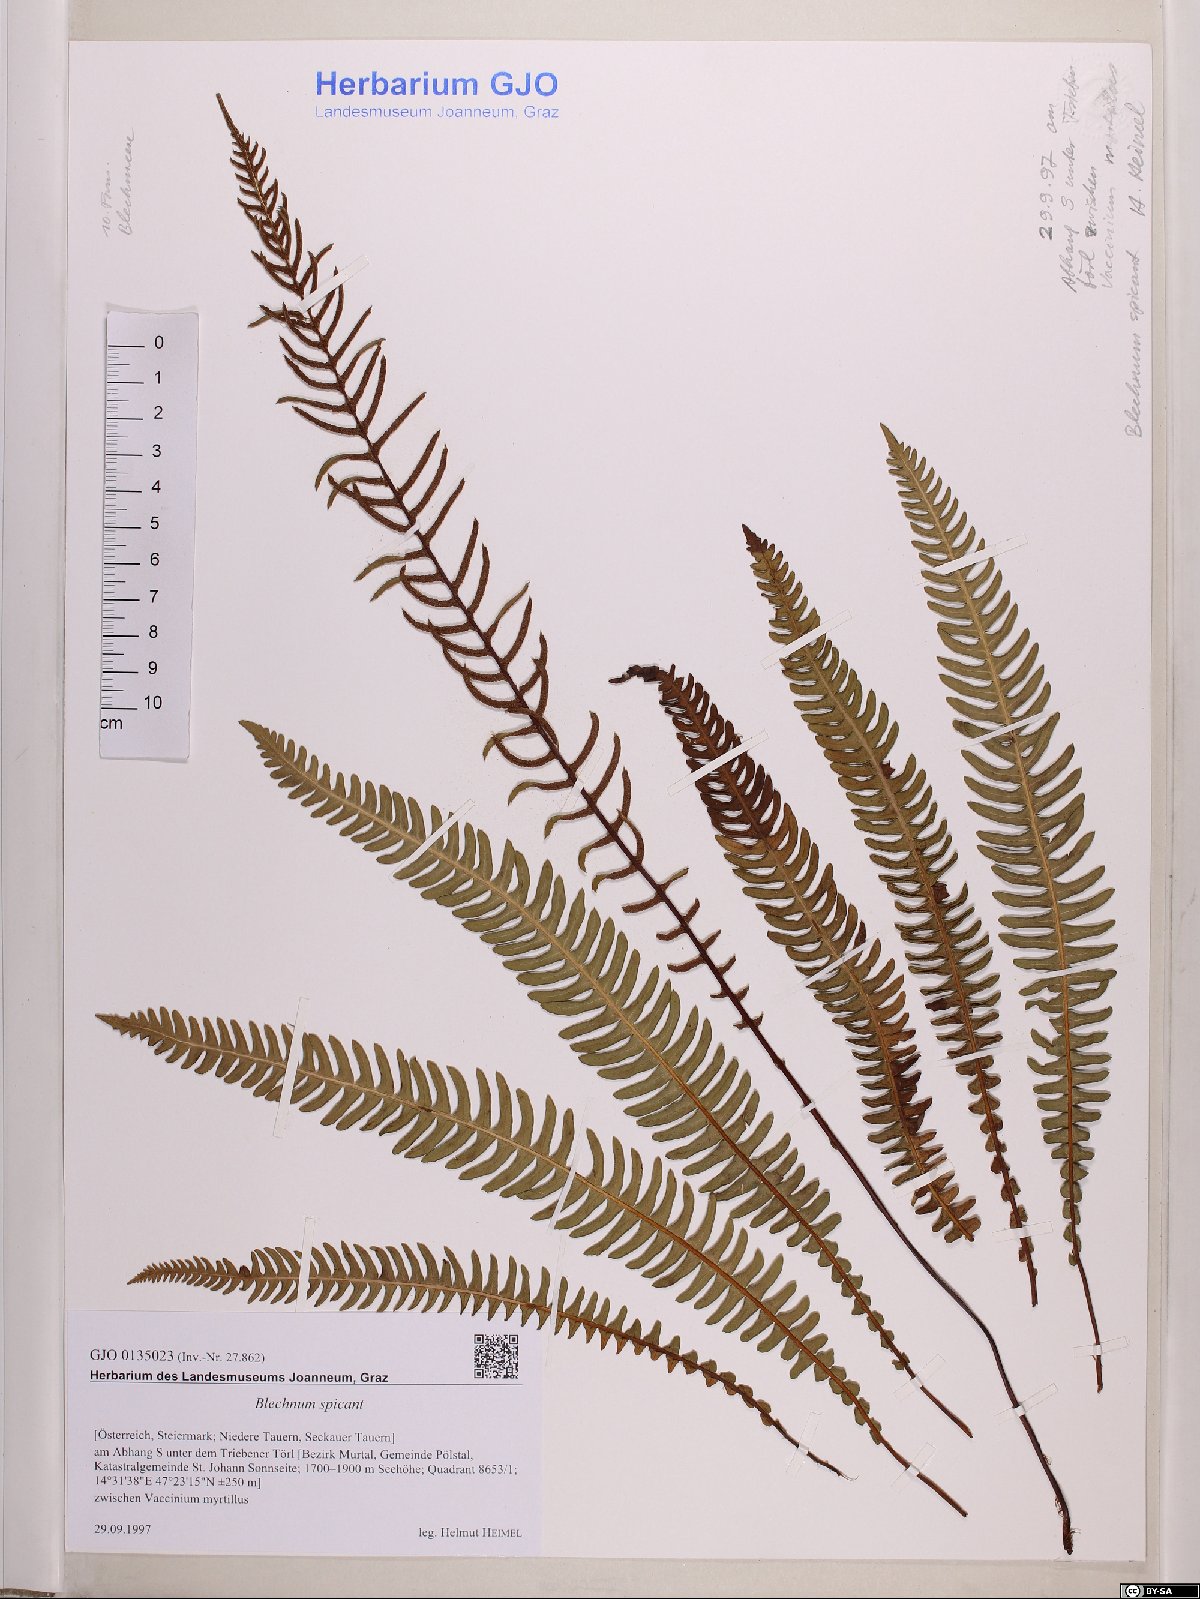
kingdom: Plantae
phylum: Tracheophyta
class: Polypodiopsida
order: Polypodiales
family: Blechnaceae
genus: Struthiopteris
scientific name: Struthiopteris spicant
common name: Deer fern
